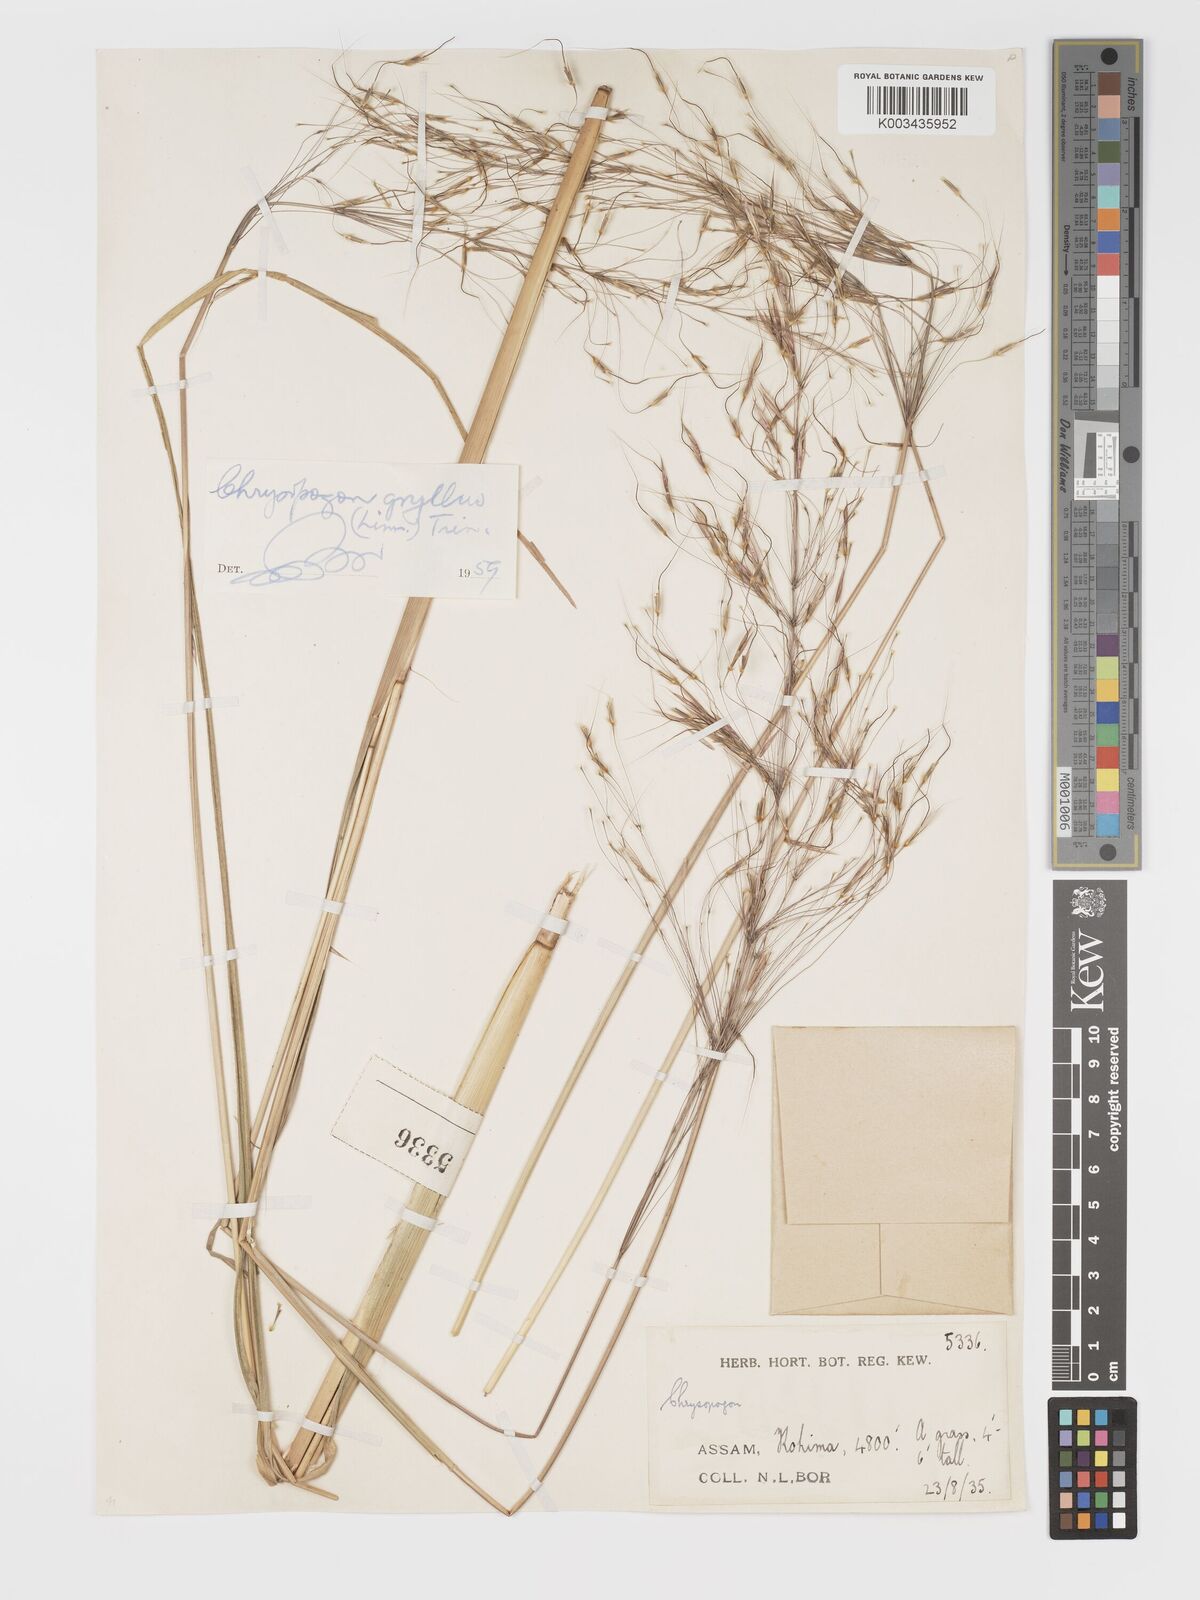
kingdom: Plantae
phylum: Tracheophyta
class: Liliopsida
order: Poales
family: Poaceae
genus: Chrysopogon
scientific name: Chrysopogon gryllus
